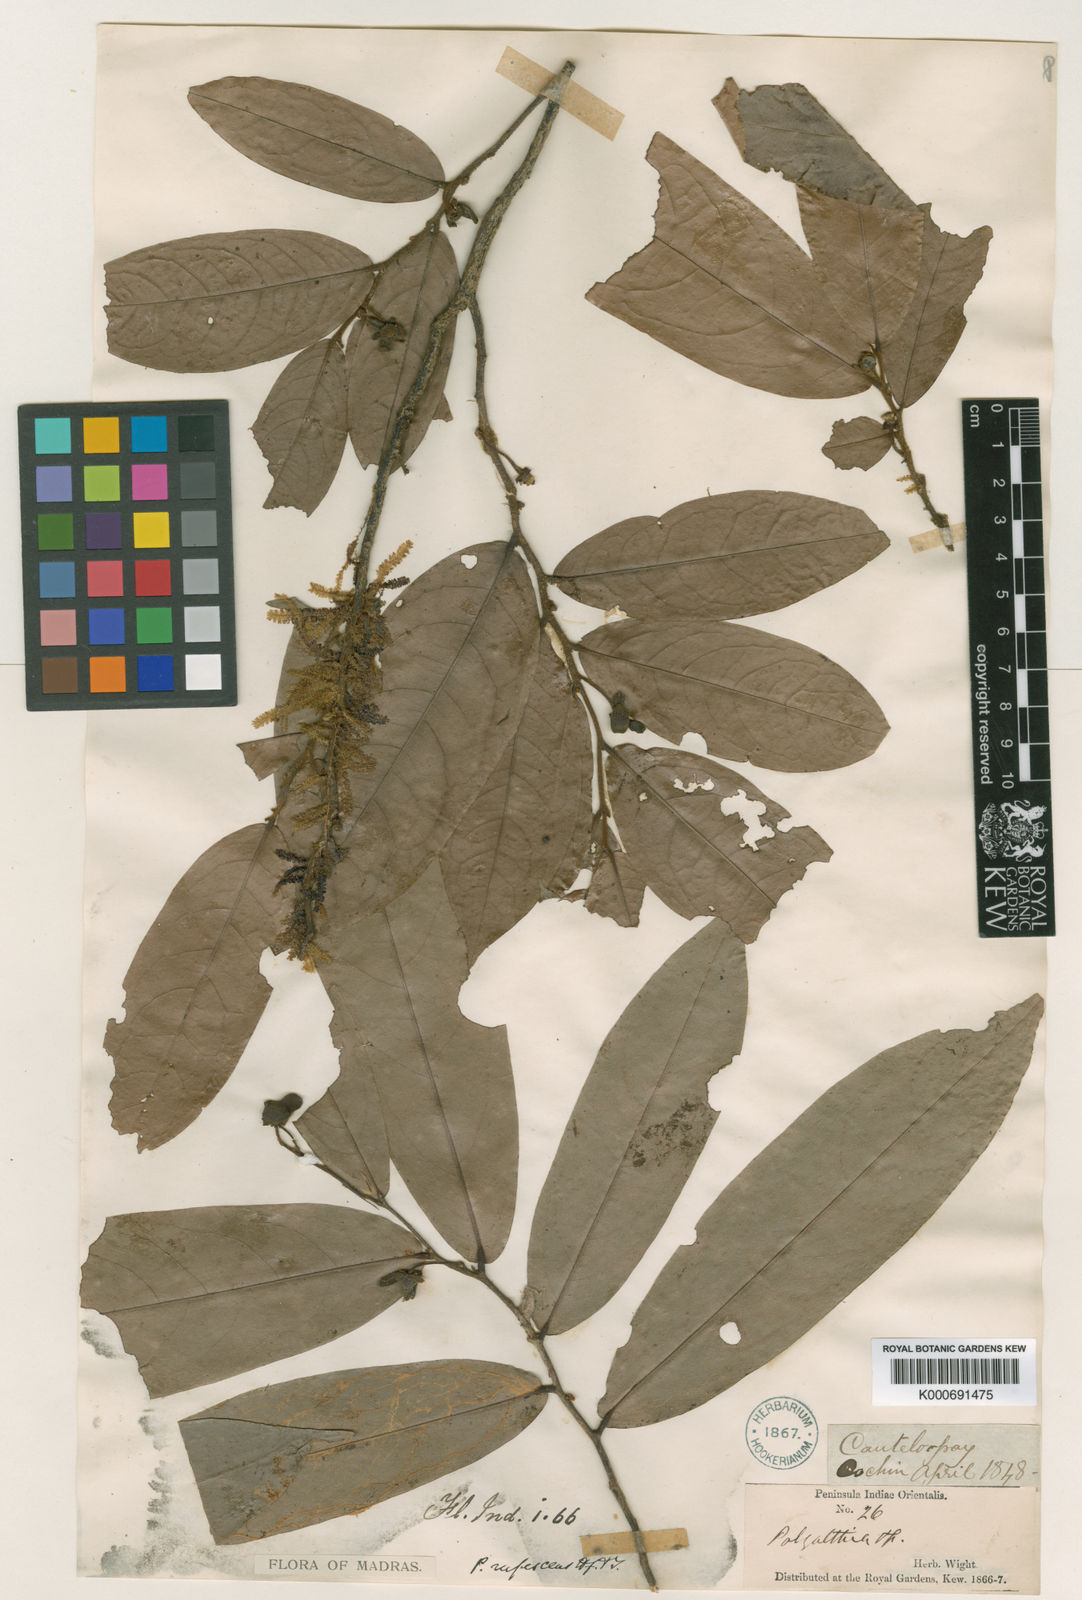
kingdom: Plantae
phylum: Tracheophyta
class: Magnoliopsida
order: Magnoliales
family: Annonaceae
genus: Polyalthia
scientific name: Polyalthia rufescens
